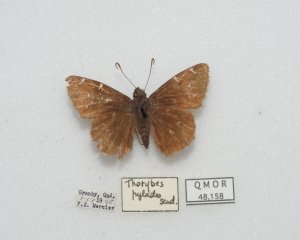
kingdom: Animalia
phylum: Arthropoda
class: Insecta
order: Lepidoptera
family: Hesperiidae
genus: Autochton
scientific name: Autochton
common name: Northern Cloudywing
